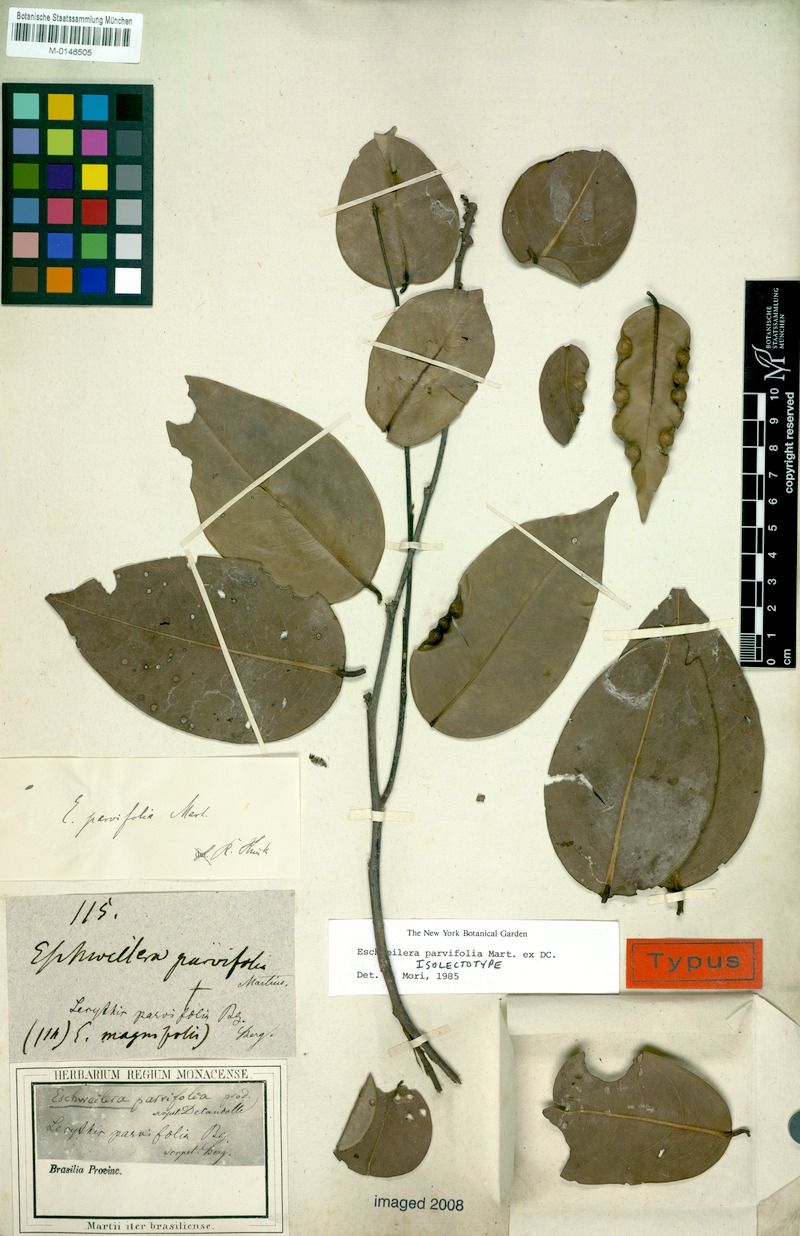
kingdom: Plantae
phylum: Tracheophyta
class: Magnoliopsida
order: Ericales
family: Lecythidaceae
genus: Eschweilera
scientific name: Eschweilera parvifolia
